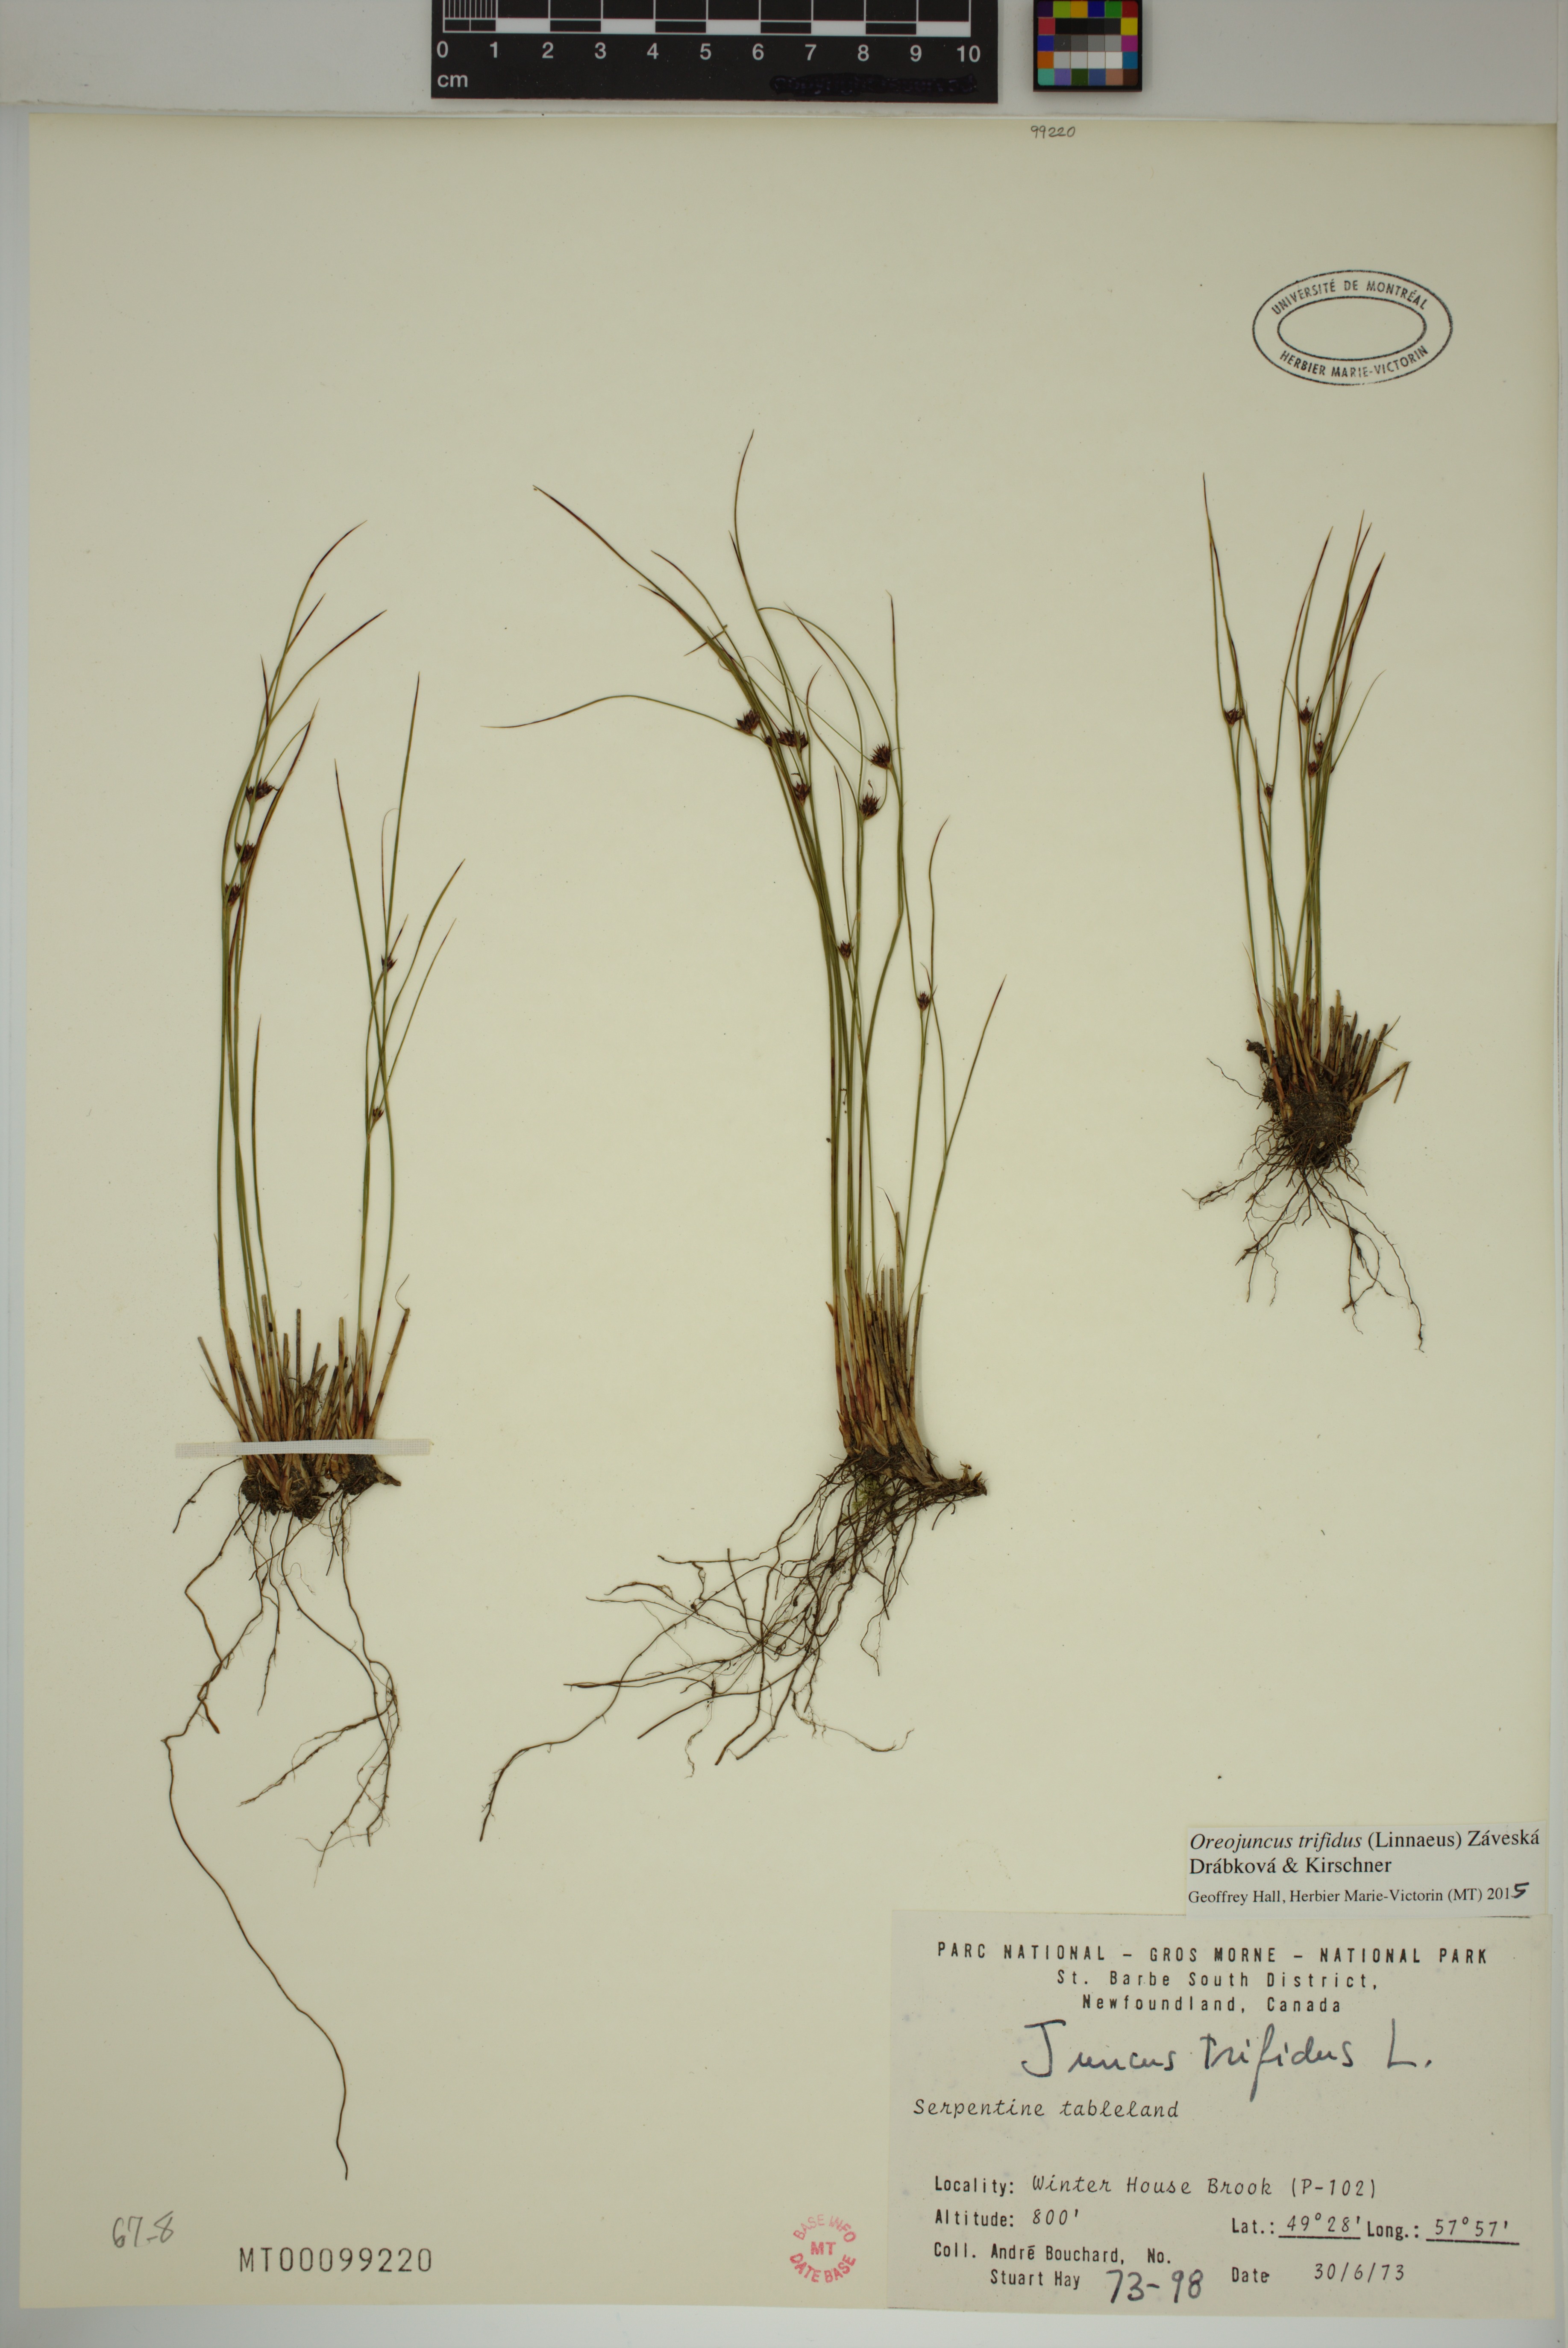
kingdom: Plantae
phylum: Tracheophyta
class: Liliopsida
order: Poales
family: Juncaceae
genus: Oreojuncus
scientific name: Oreojuncus trifidus
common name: Highland rush
